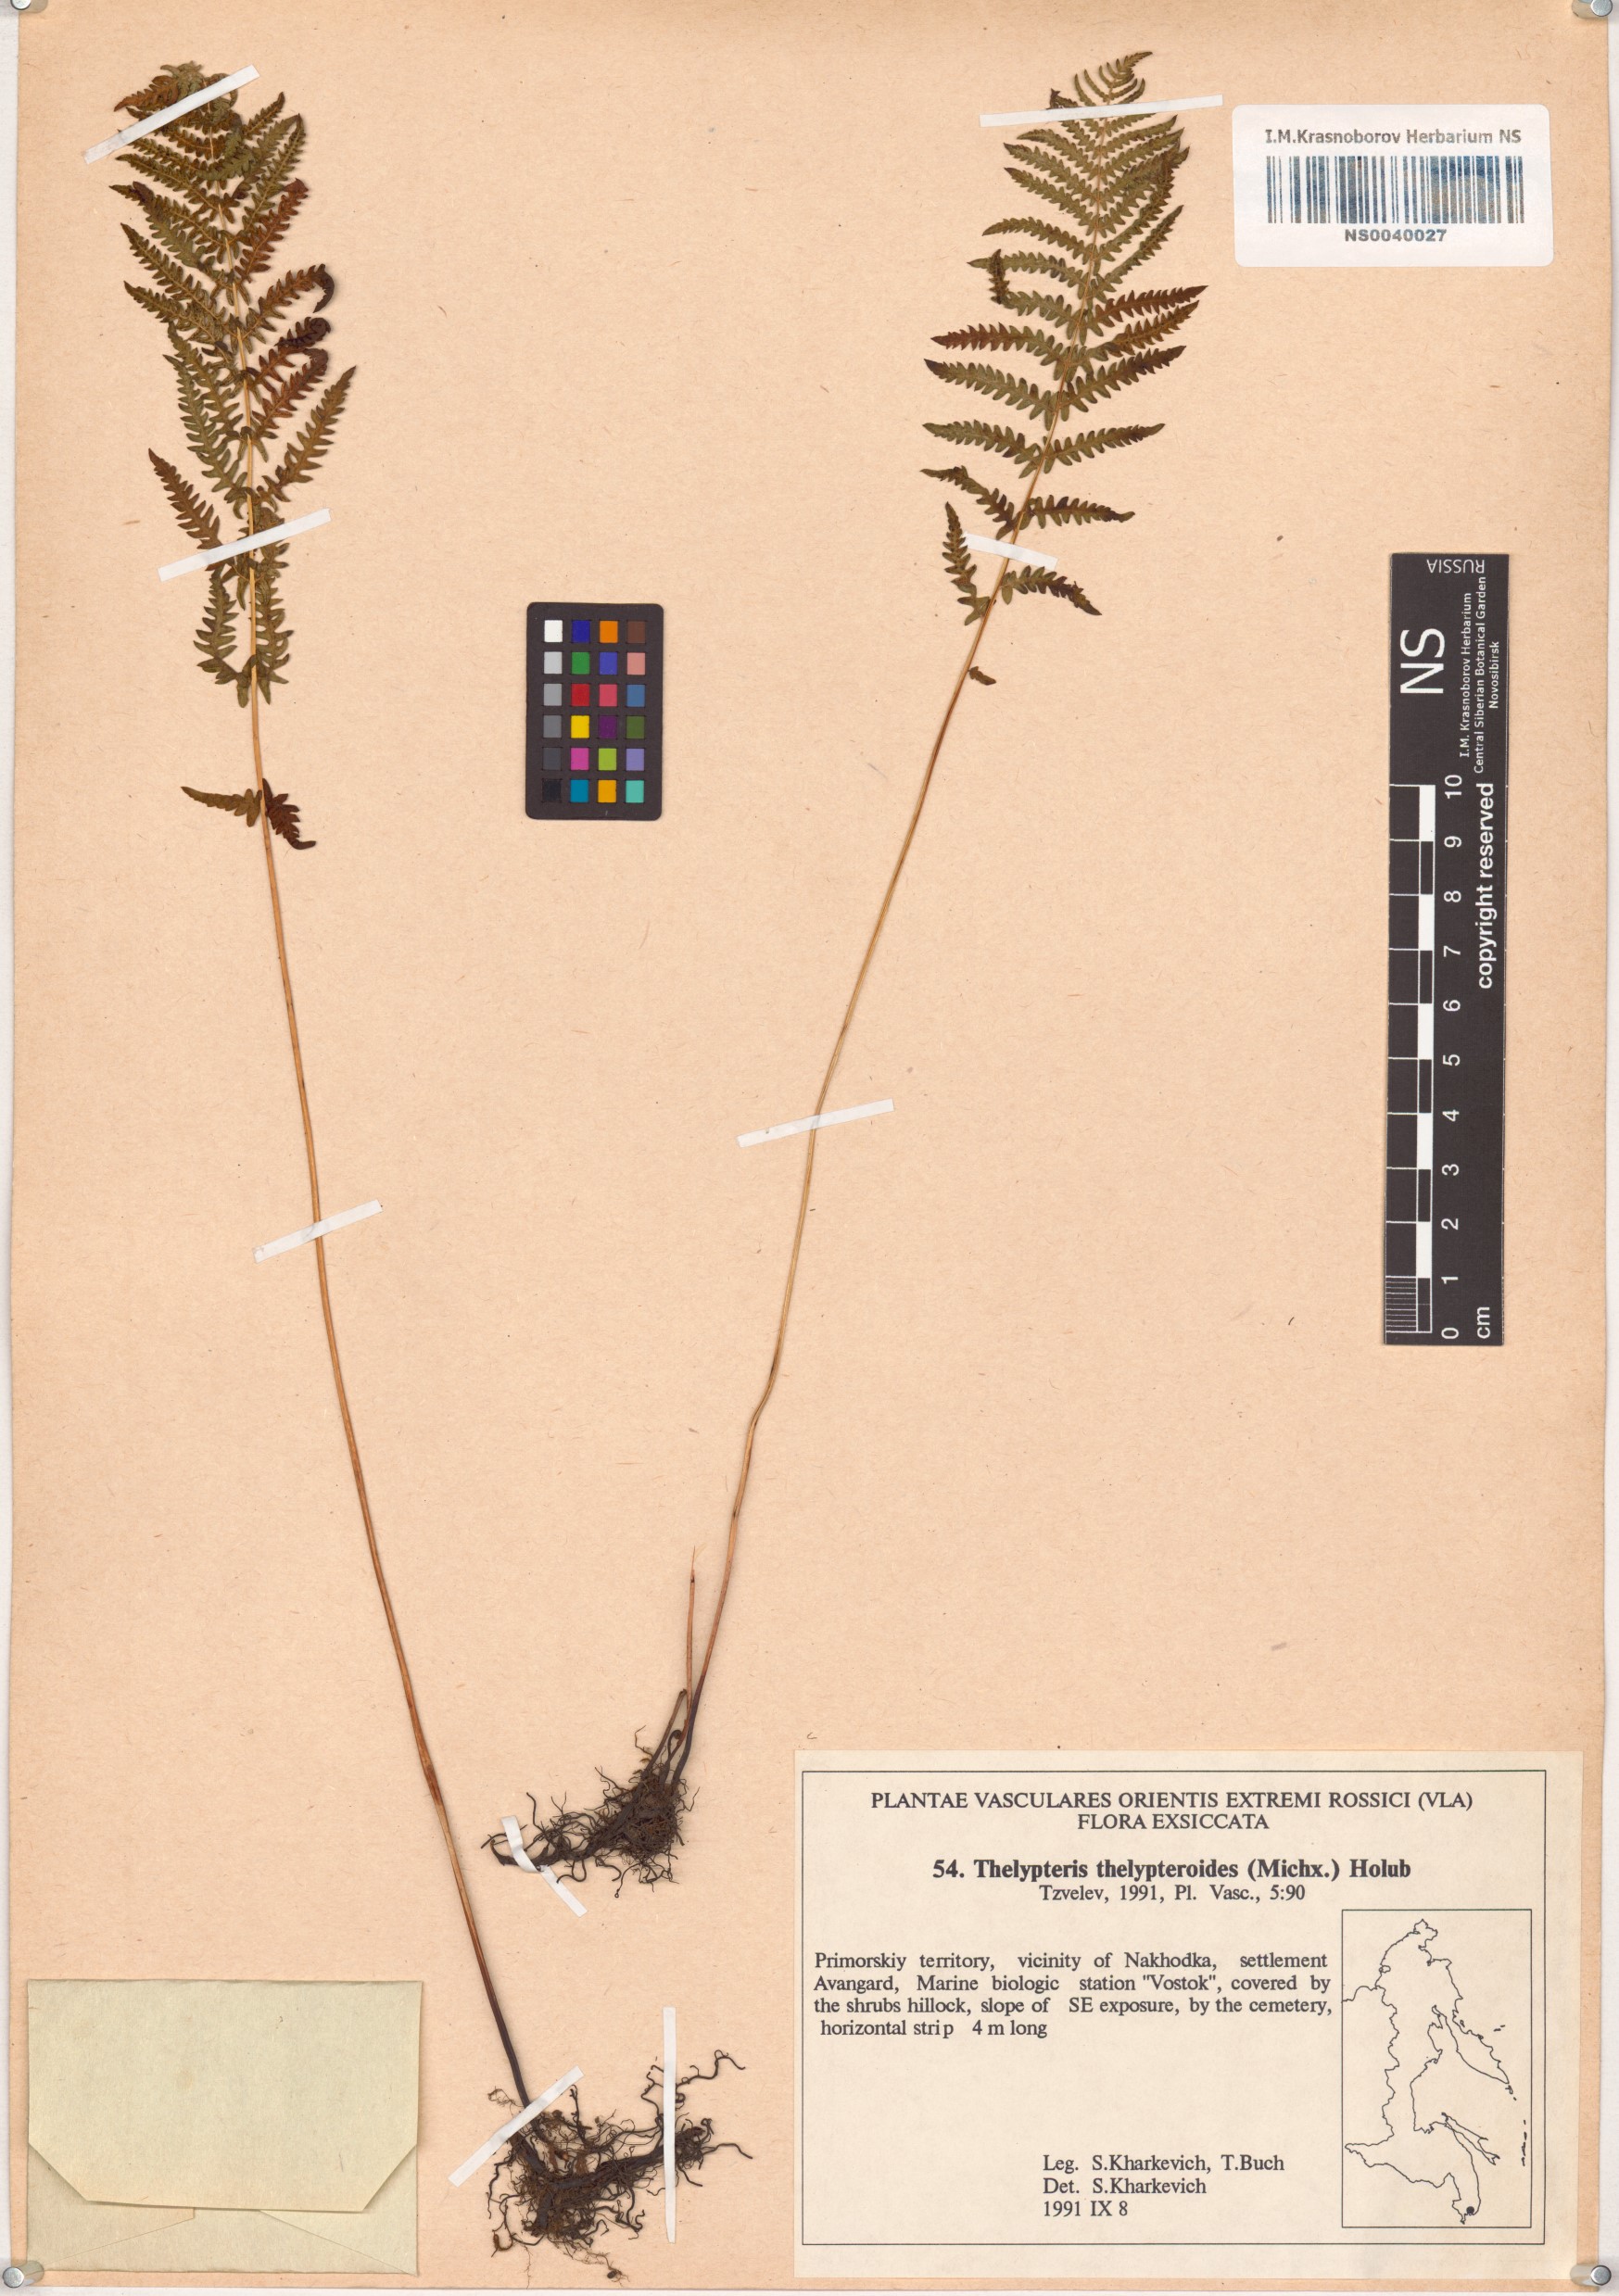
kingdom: Plantae
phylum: Tracheophyta
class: Polypodiopsida
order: Polypodiales
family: Thelypteridaceae
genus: Amauropelta
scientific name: Amauropelta noveboracensis
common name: New york fern
